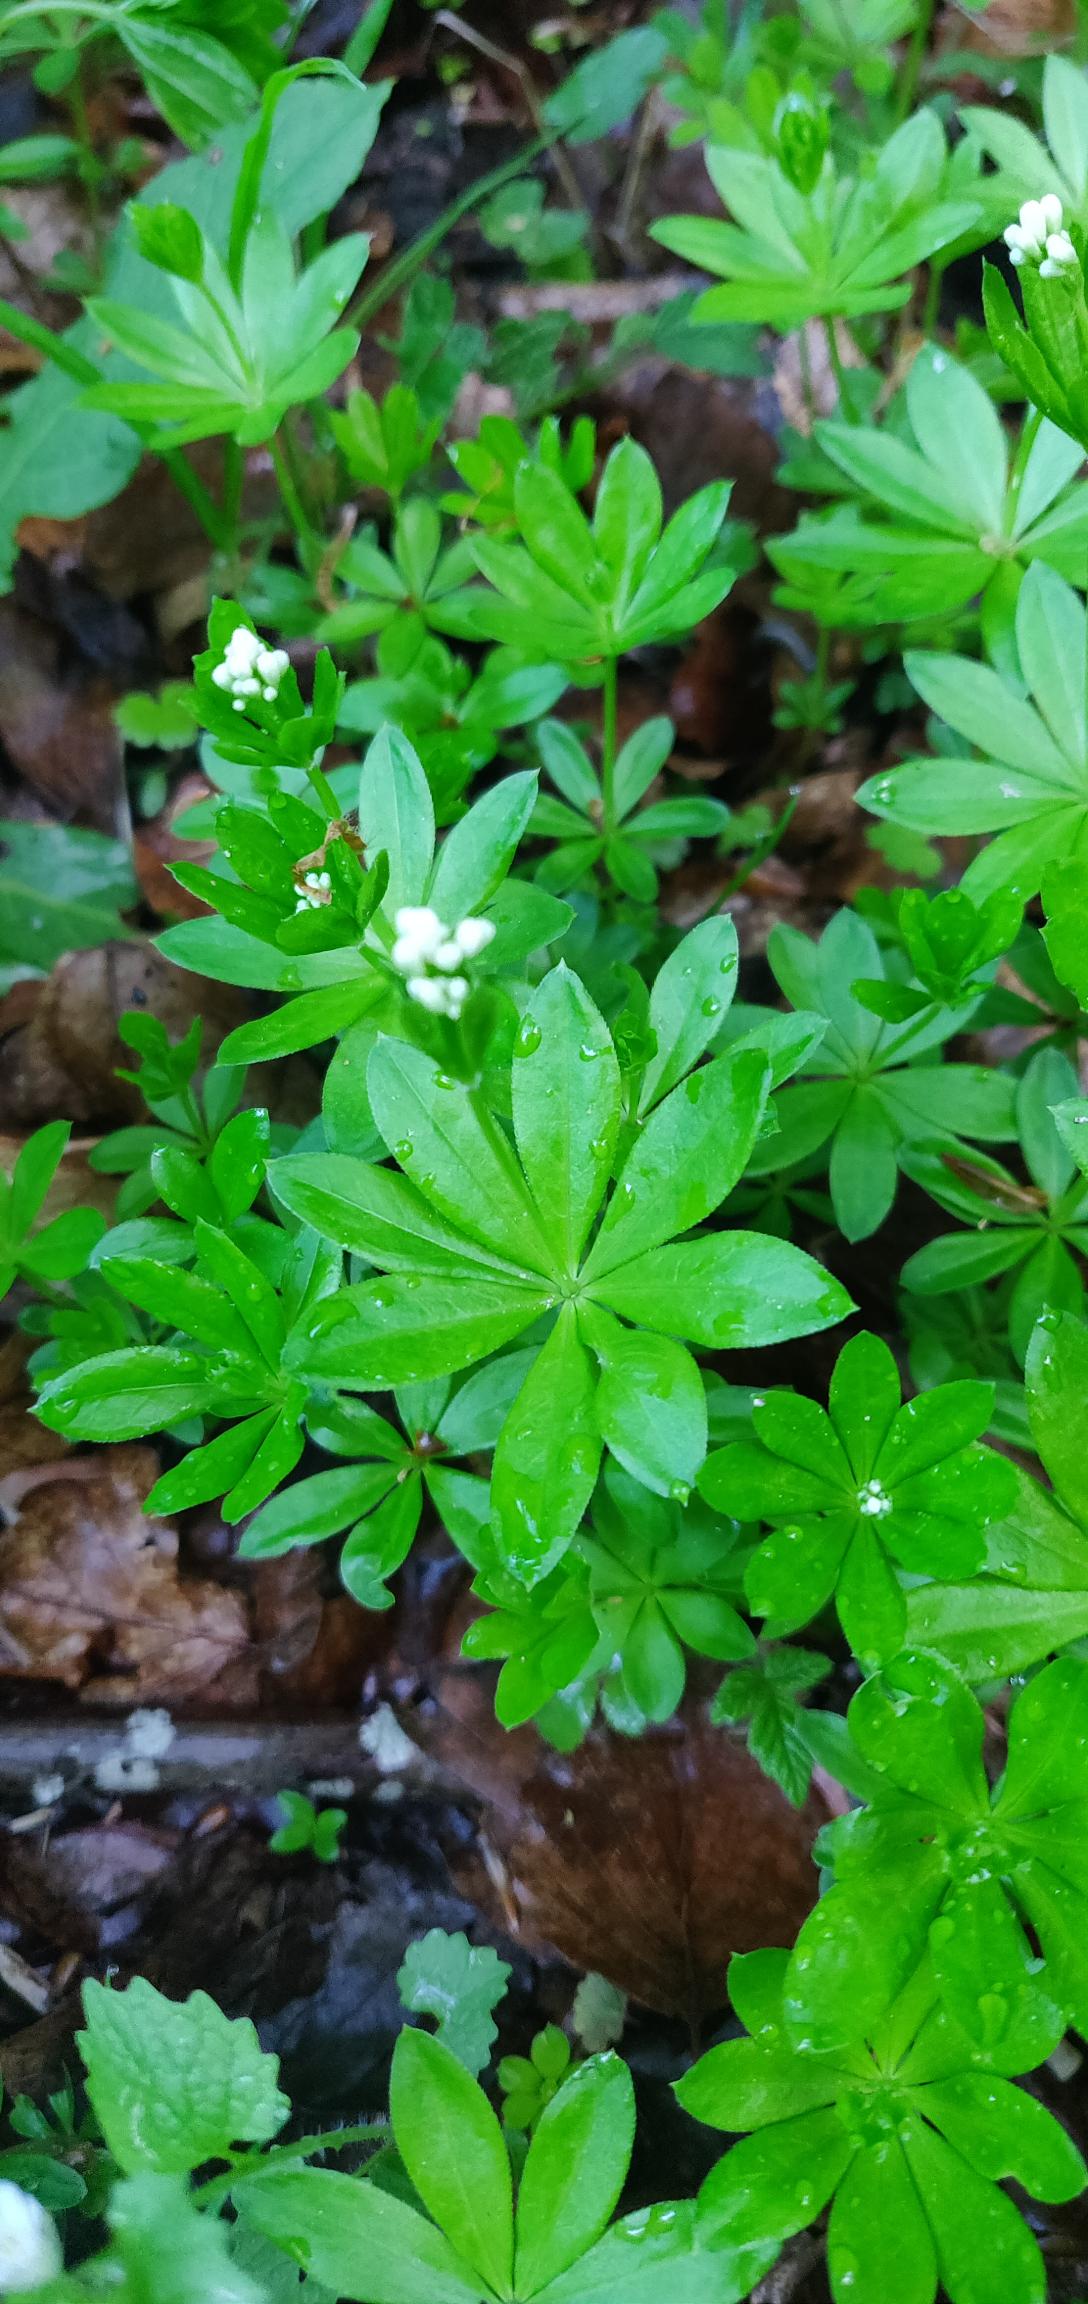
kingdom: Plantae
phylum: Tracheophyta
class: Magnoliopsida
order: Gentianales
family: Rubiaceae
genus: Galium
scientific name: Galium odoratum
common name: Skovmærke
